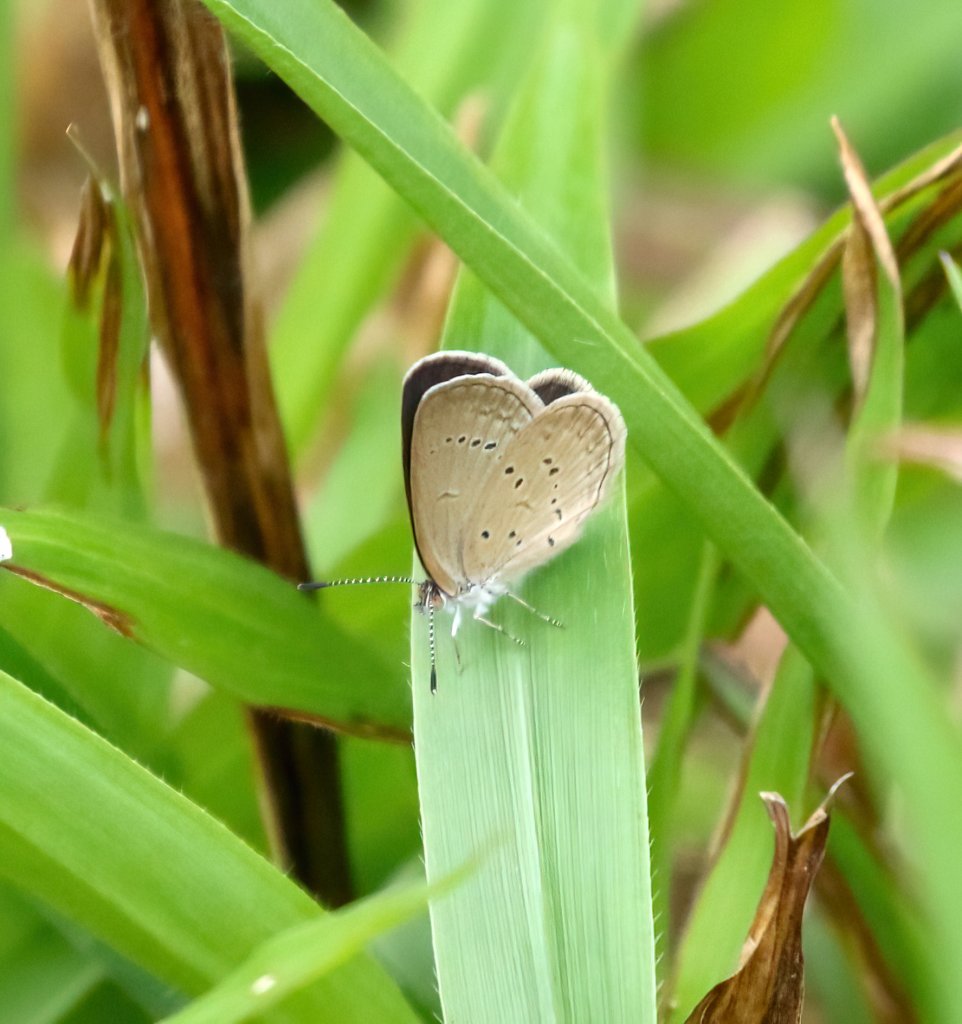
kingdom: Animalia
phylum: Arthropoda
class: Insecta
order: Lepidoptera
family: Lycaenidae
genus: Zizina
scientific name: Zizina otis
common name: Lesser Grass Blue
